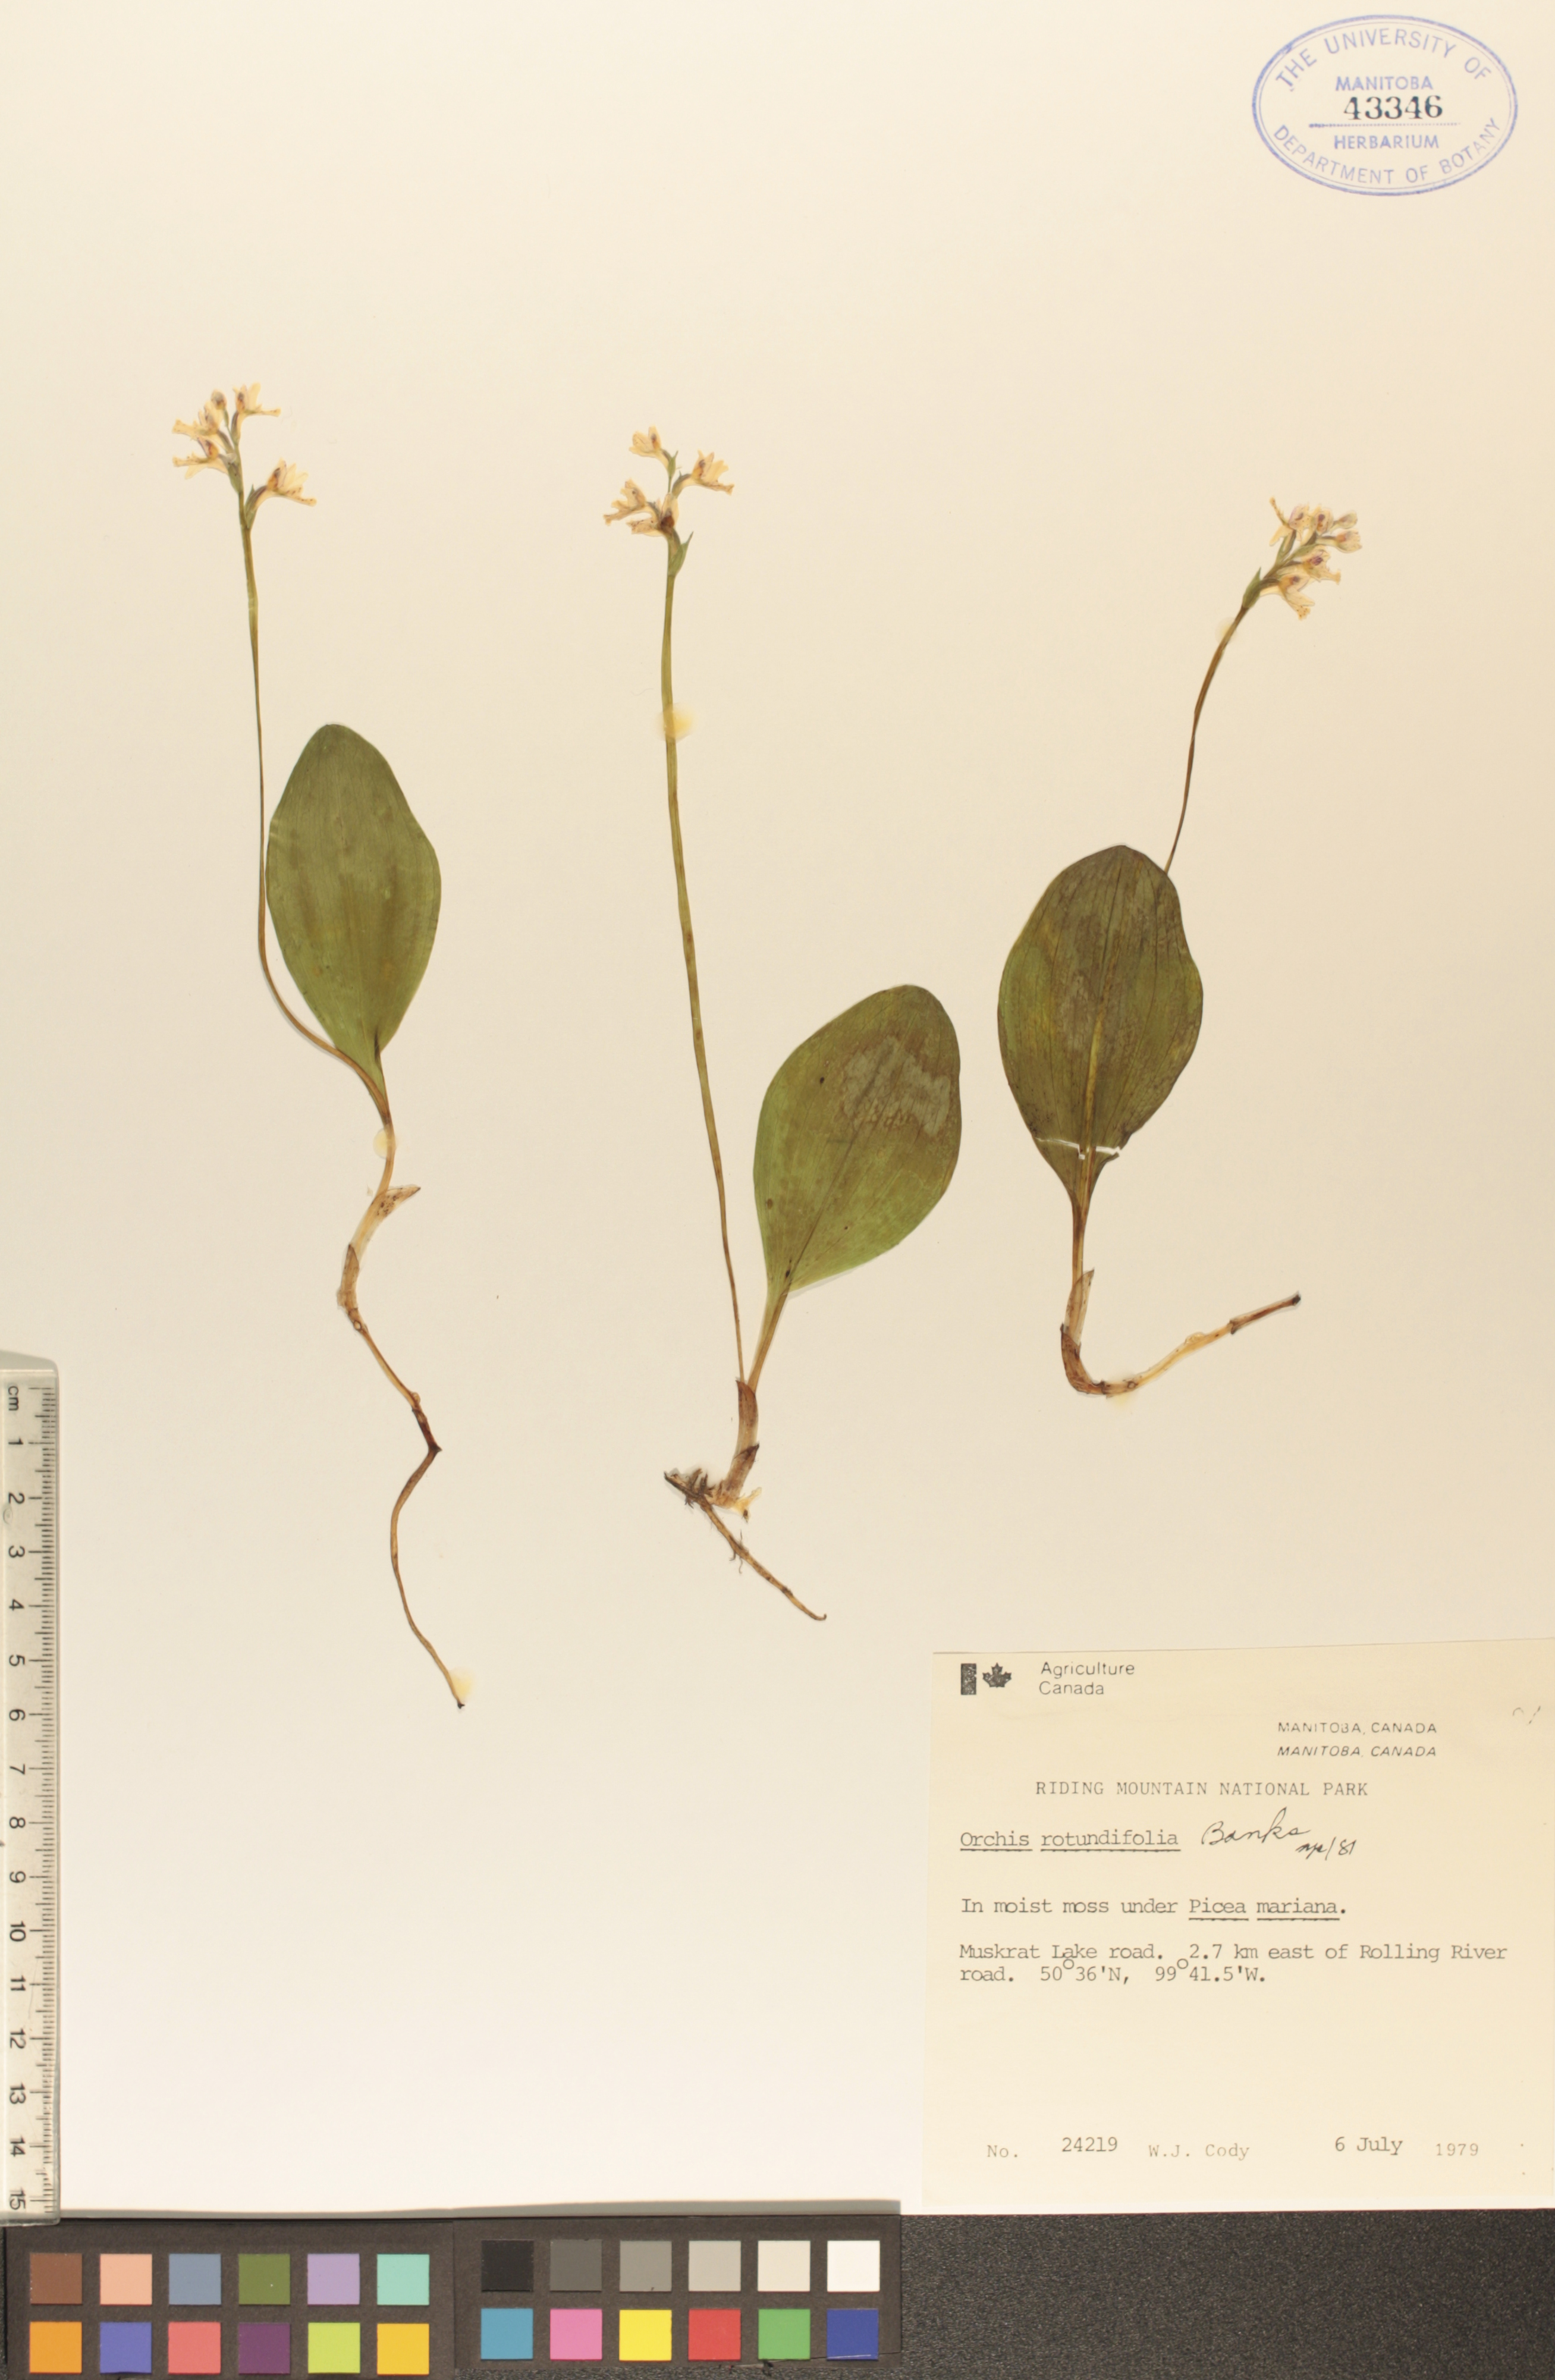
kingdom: Plantae
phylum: Tracheophyta
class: Liliopsida
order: Asparagales
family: Orchidaceae
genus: Galearis
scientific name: Galearis rotundifolia
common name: One-leaved orchis
